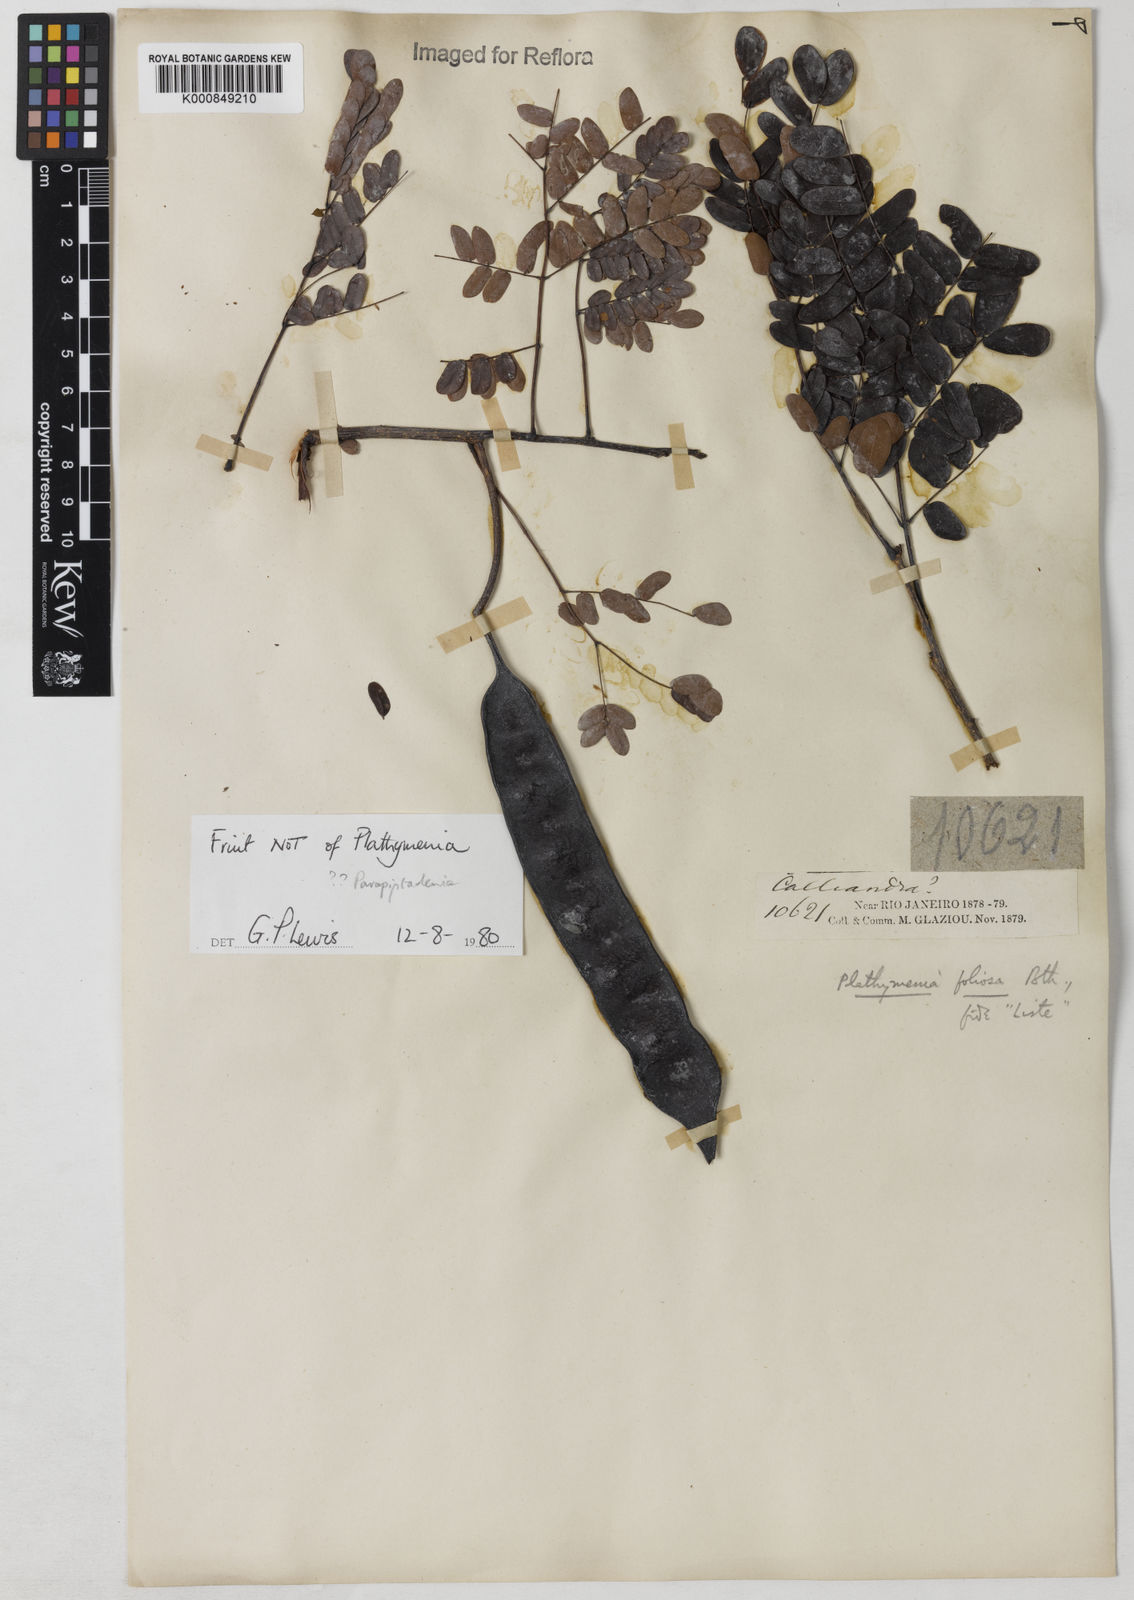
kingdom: Plantae
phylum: Tracheophyta
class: Magnoliopsida
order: Fabales
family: Fabaceae
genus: Plathymenia
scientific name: Plathymenia reticulata
